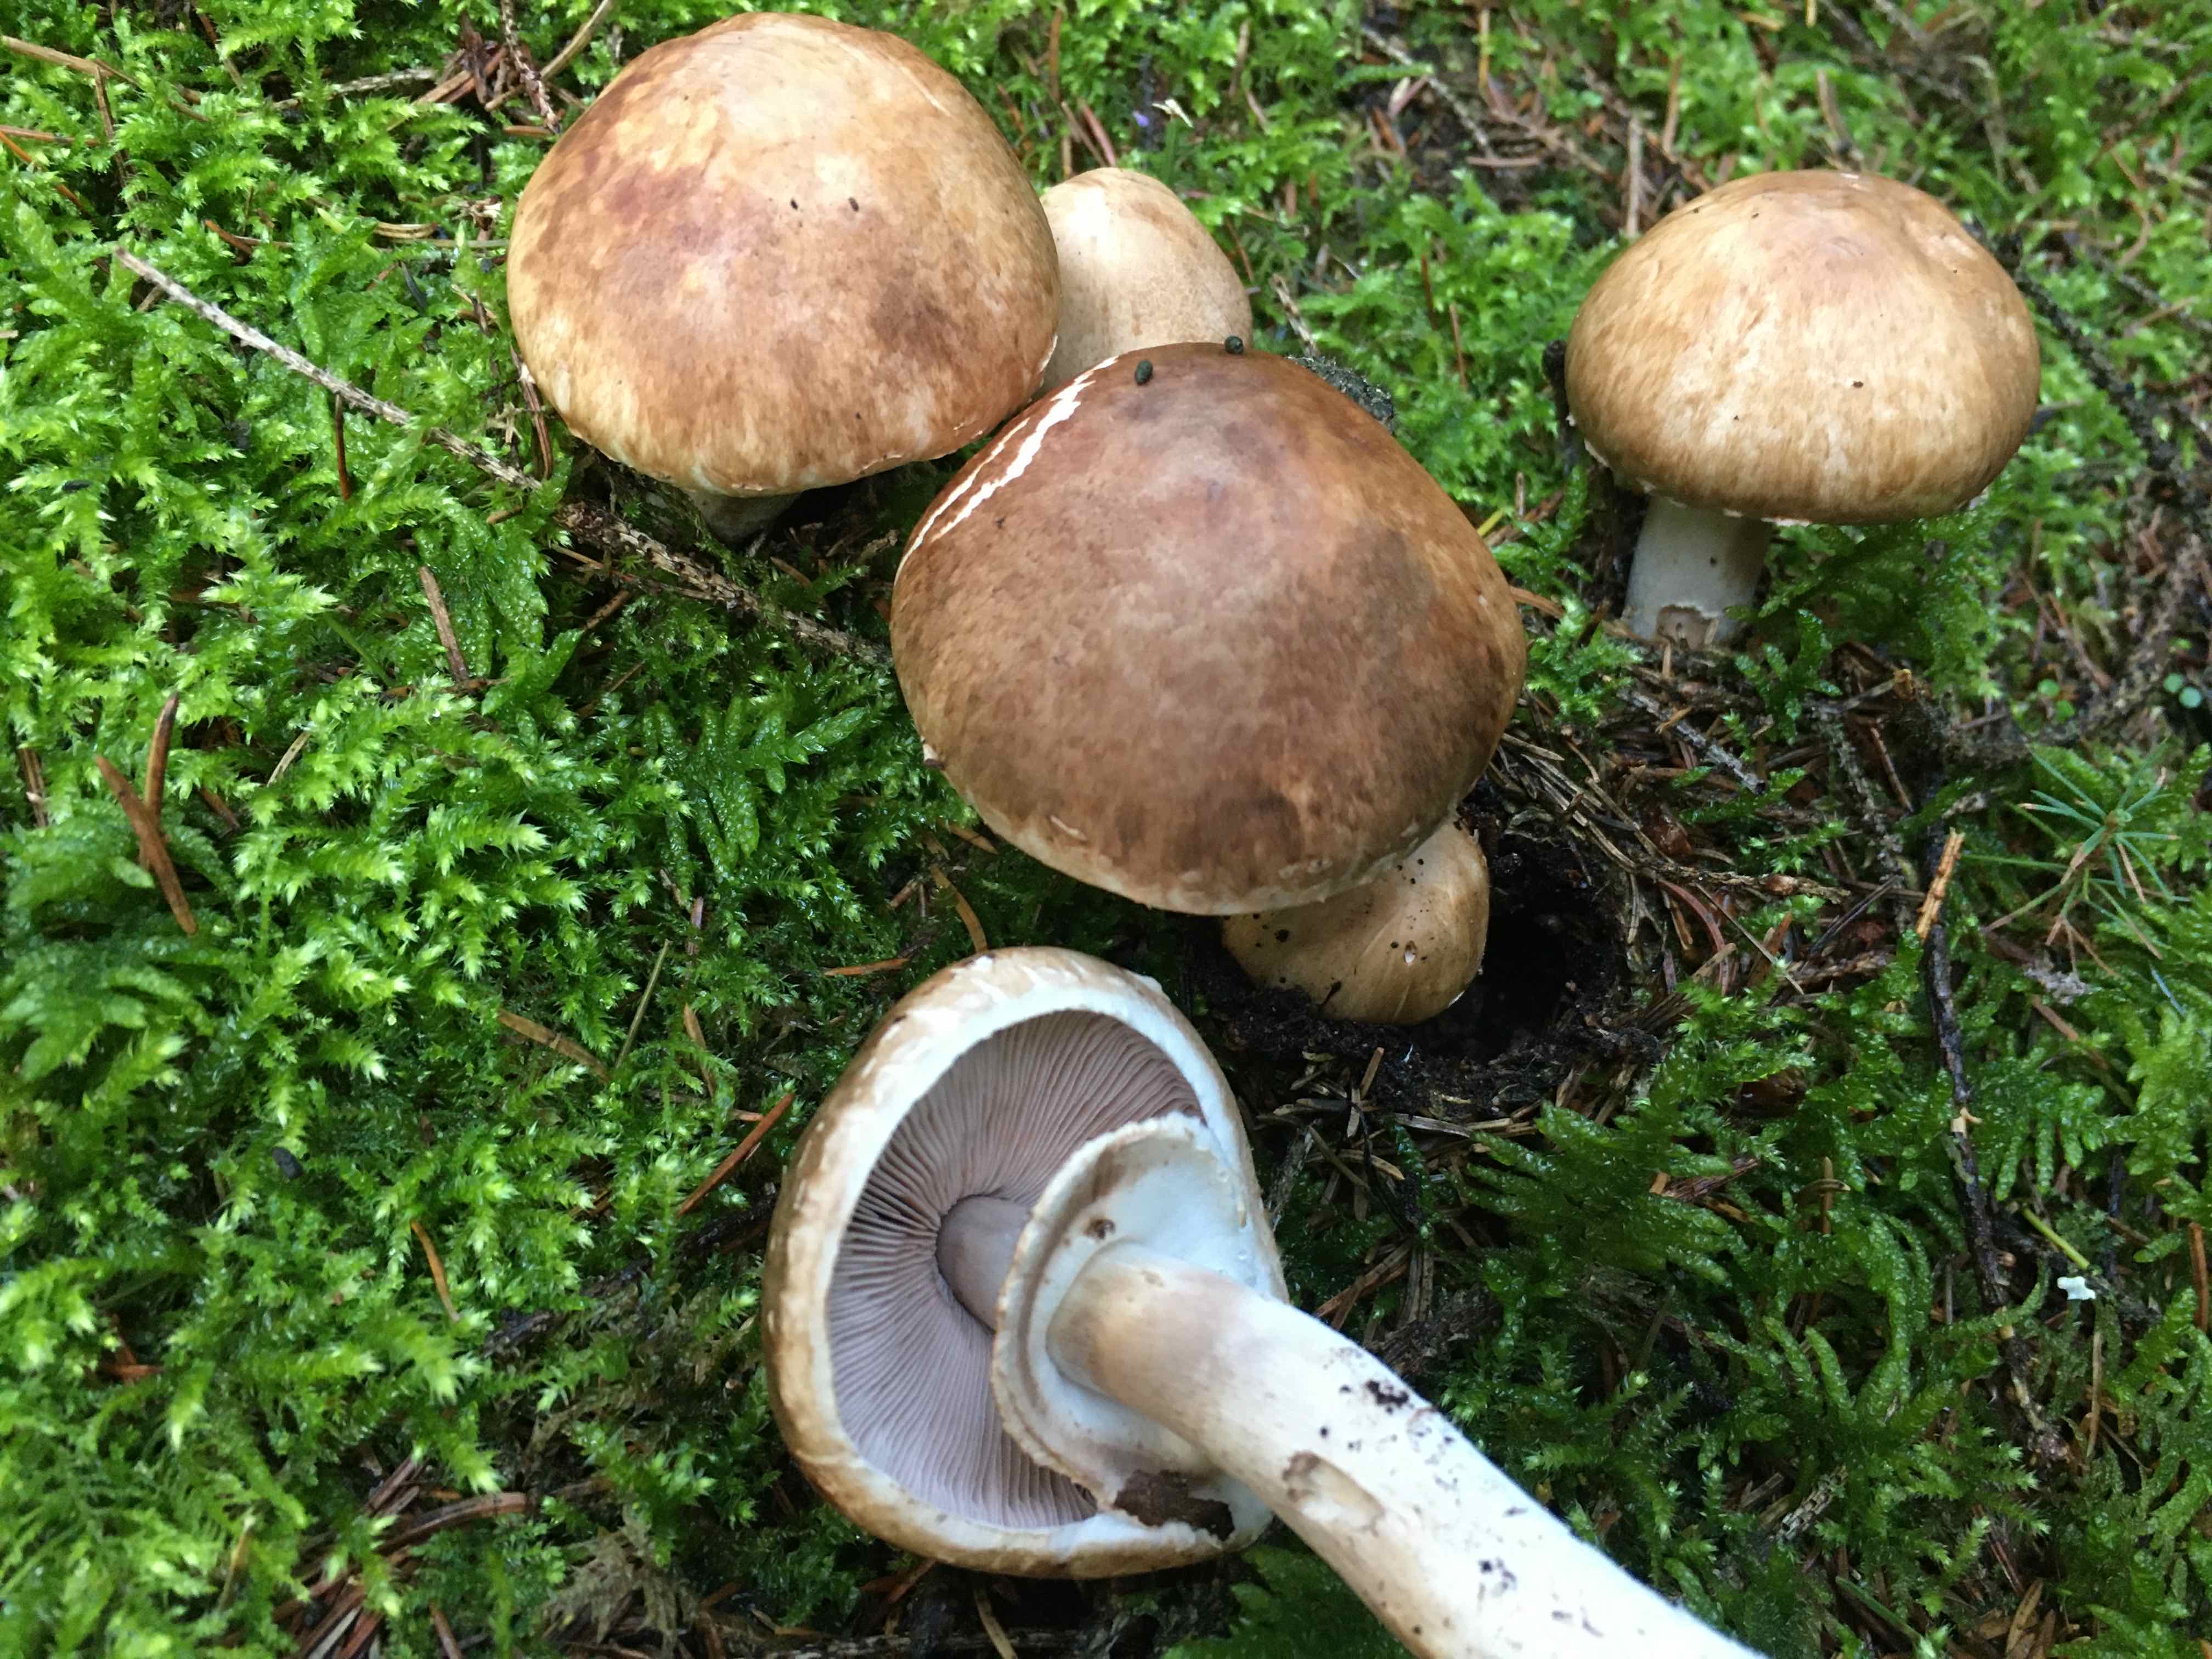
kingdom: Fungi
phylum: Basidiomycota
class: Agaricomycetes
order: Agaricales
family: Agaricaceae
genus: Agaricus
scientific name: Agaricus
